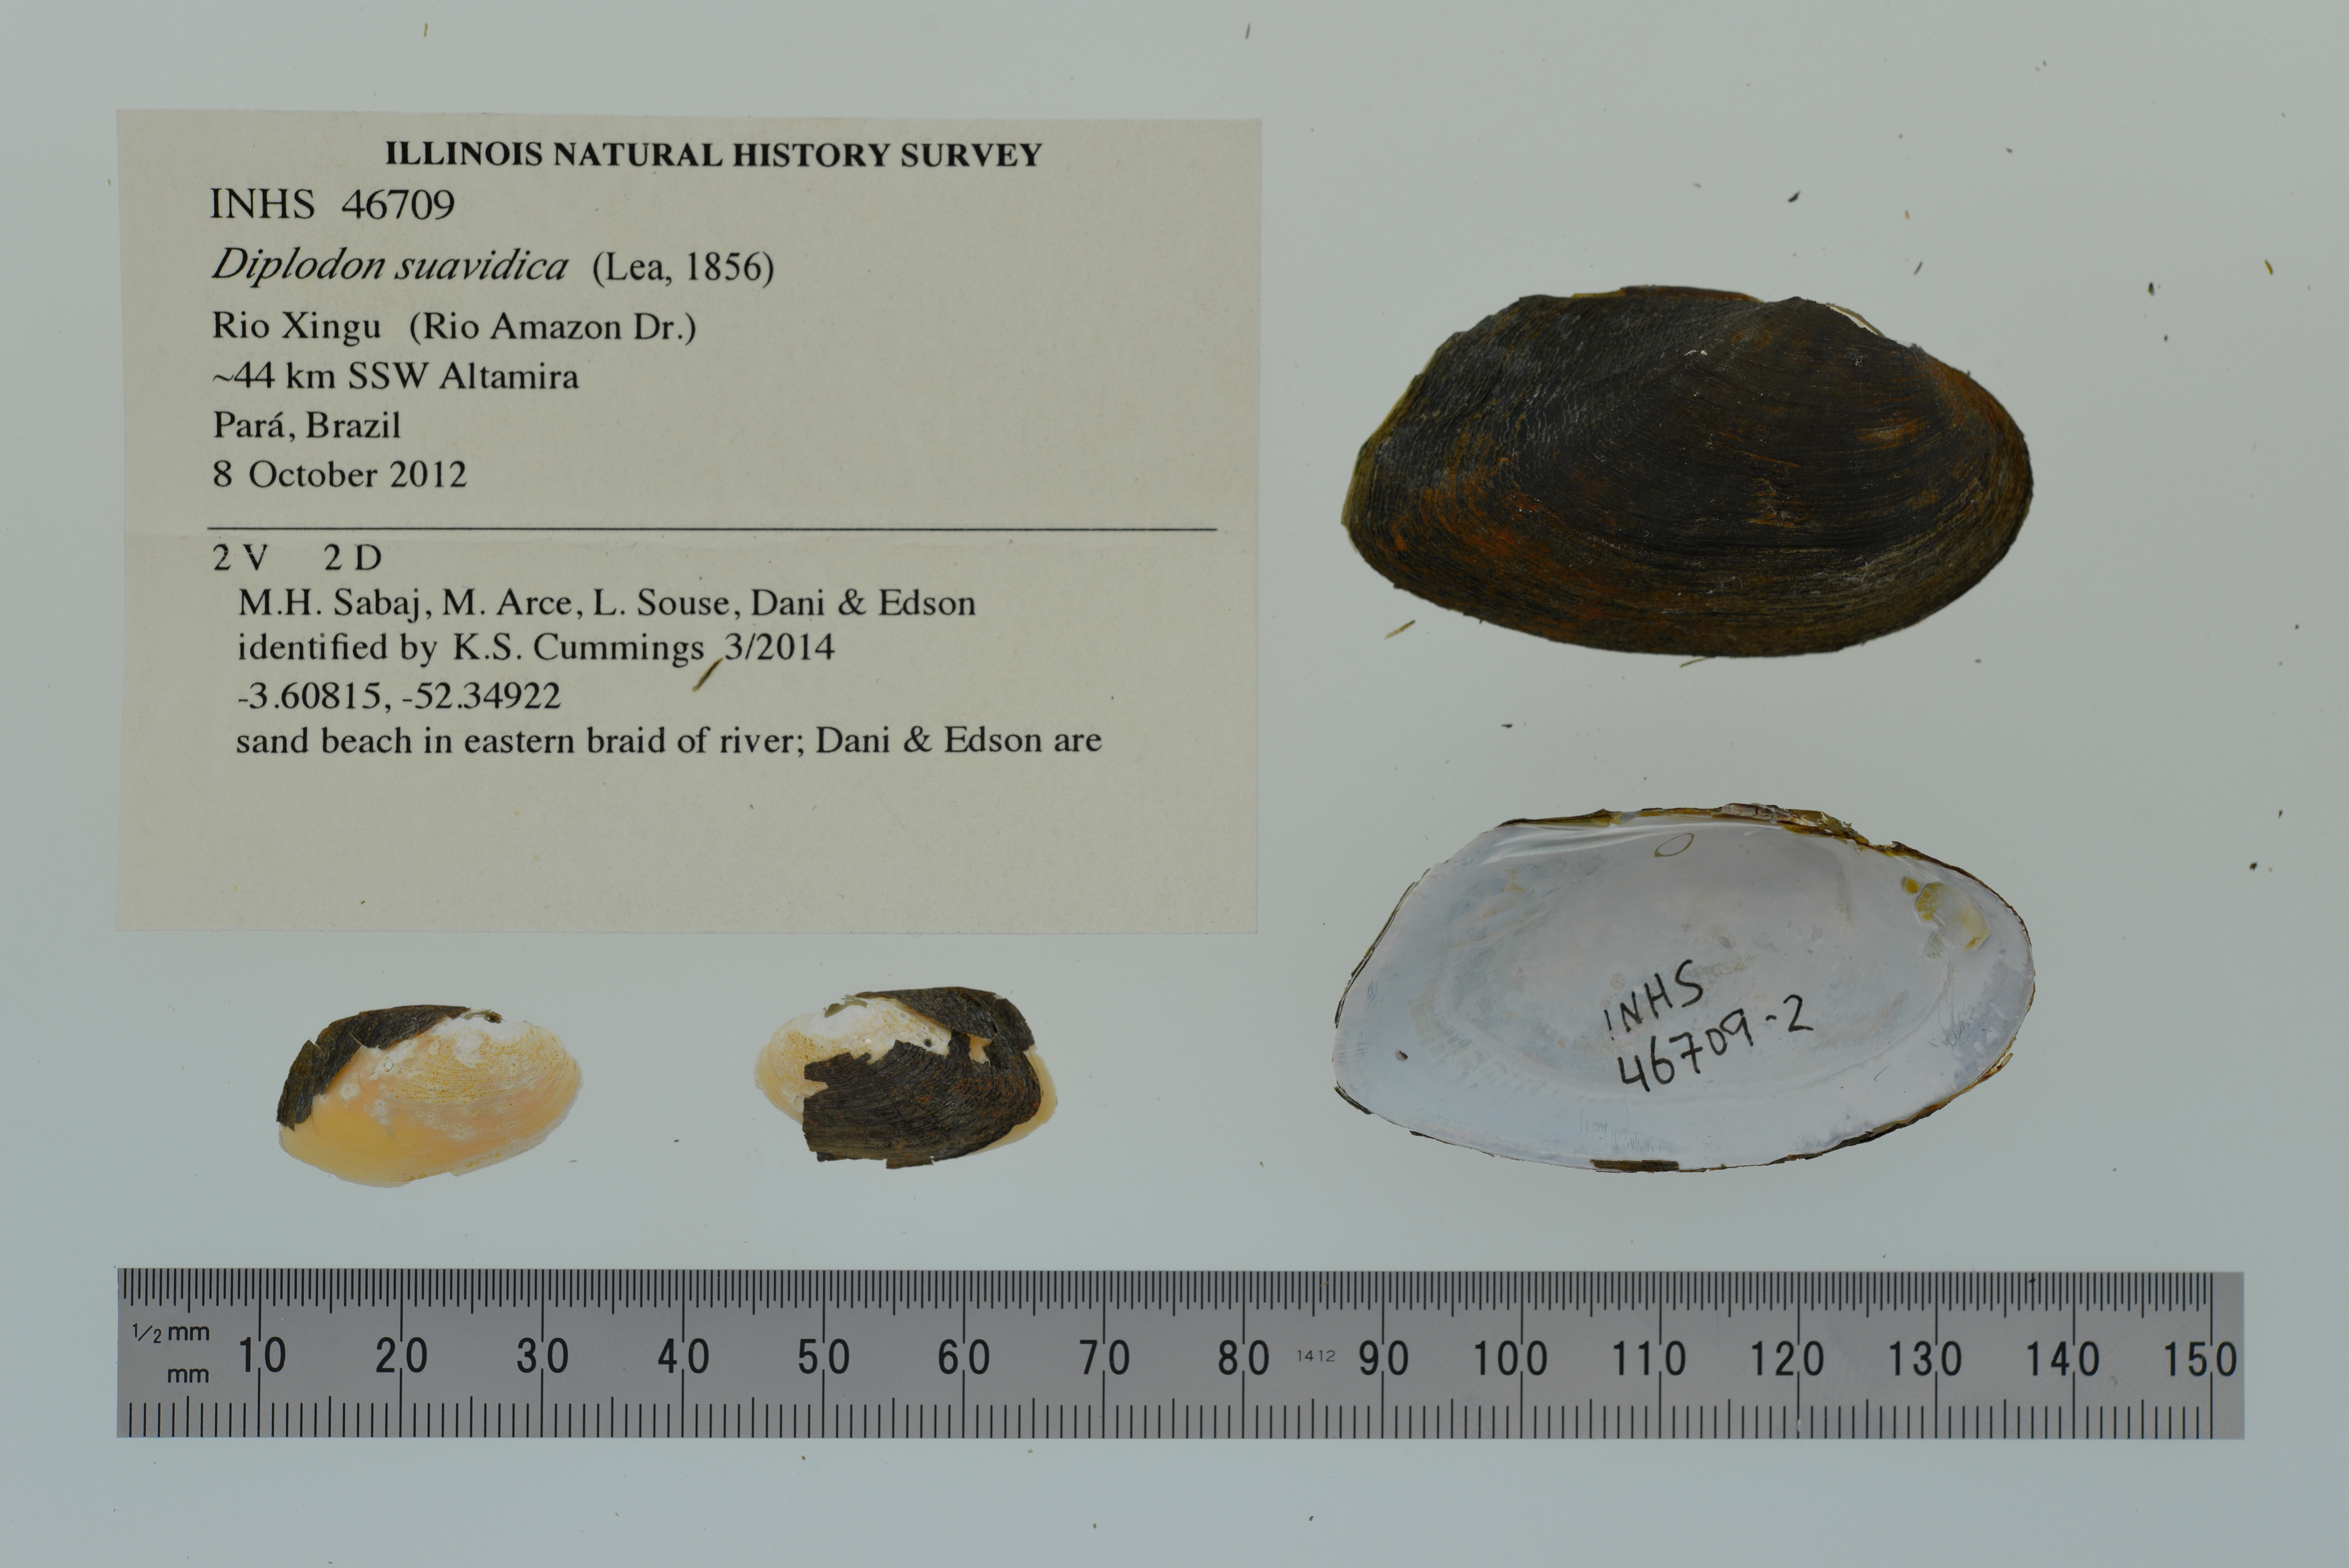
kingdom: Animalia
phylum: Mollusca
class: Bivalvia
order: Unionida
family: Hyriidae
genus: Diplodon
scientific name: Diplodon suavidicus
